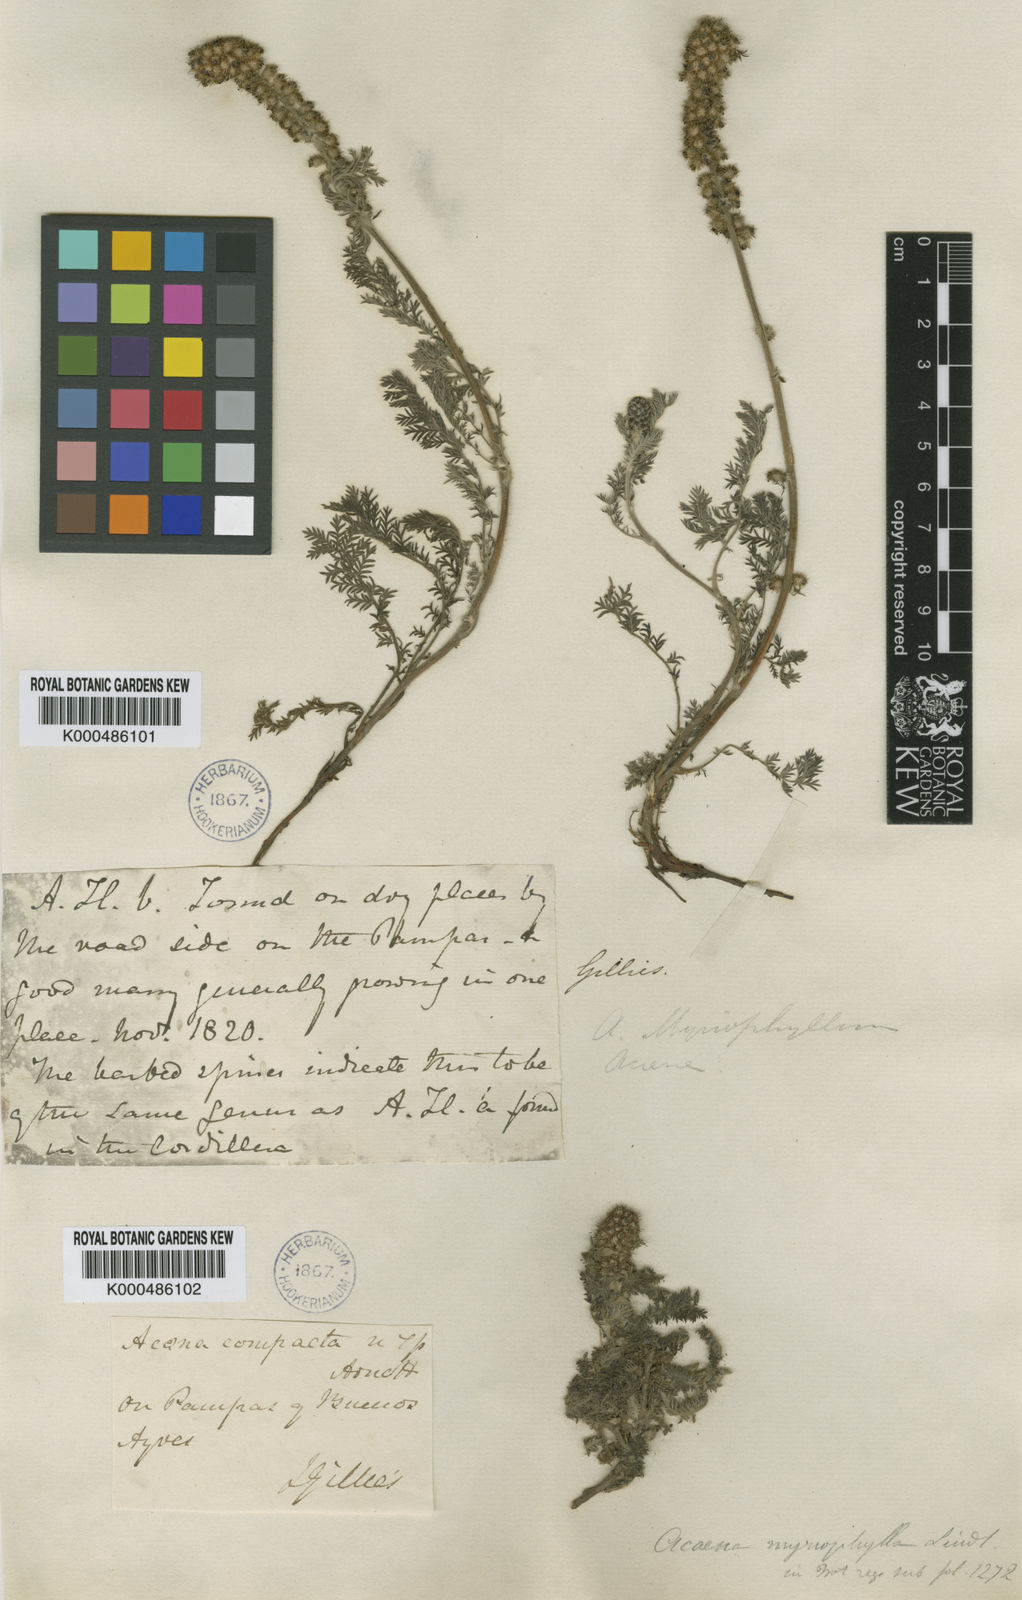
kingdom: Plantae
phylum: Tracheophyta
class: Magnoliopsida
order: Rosales
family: Rosaceae
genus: Acaena
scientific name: Acaena pinnatifida
